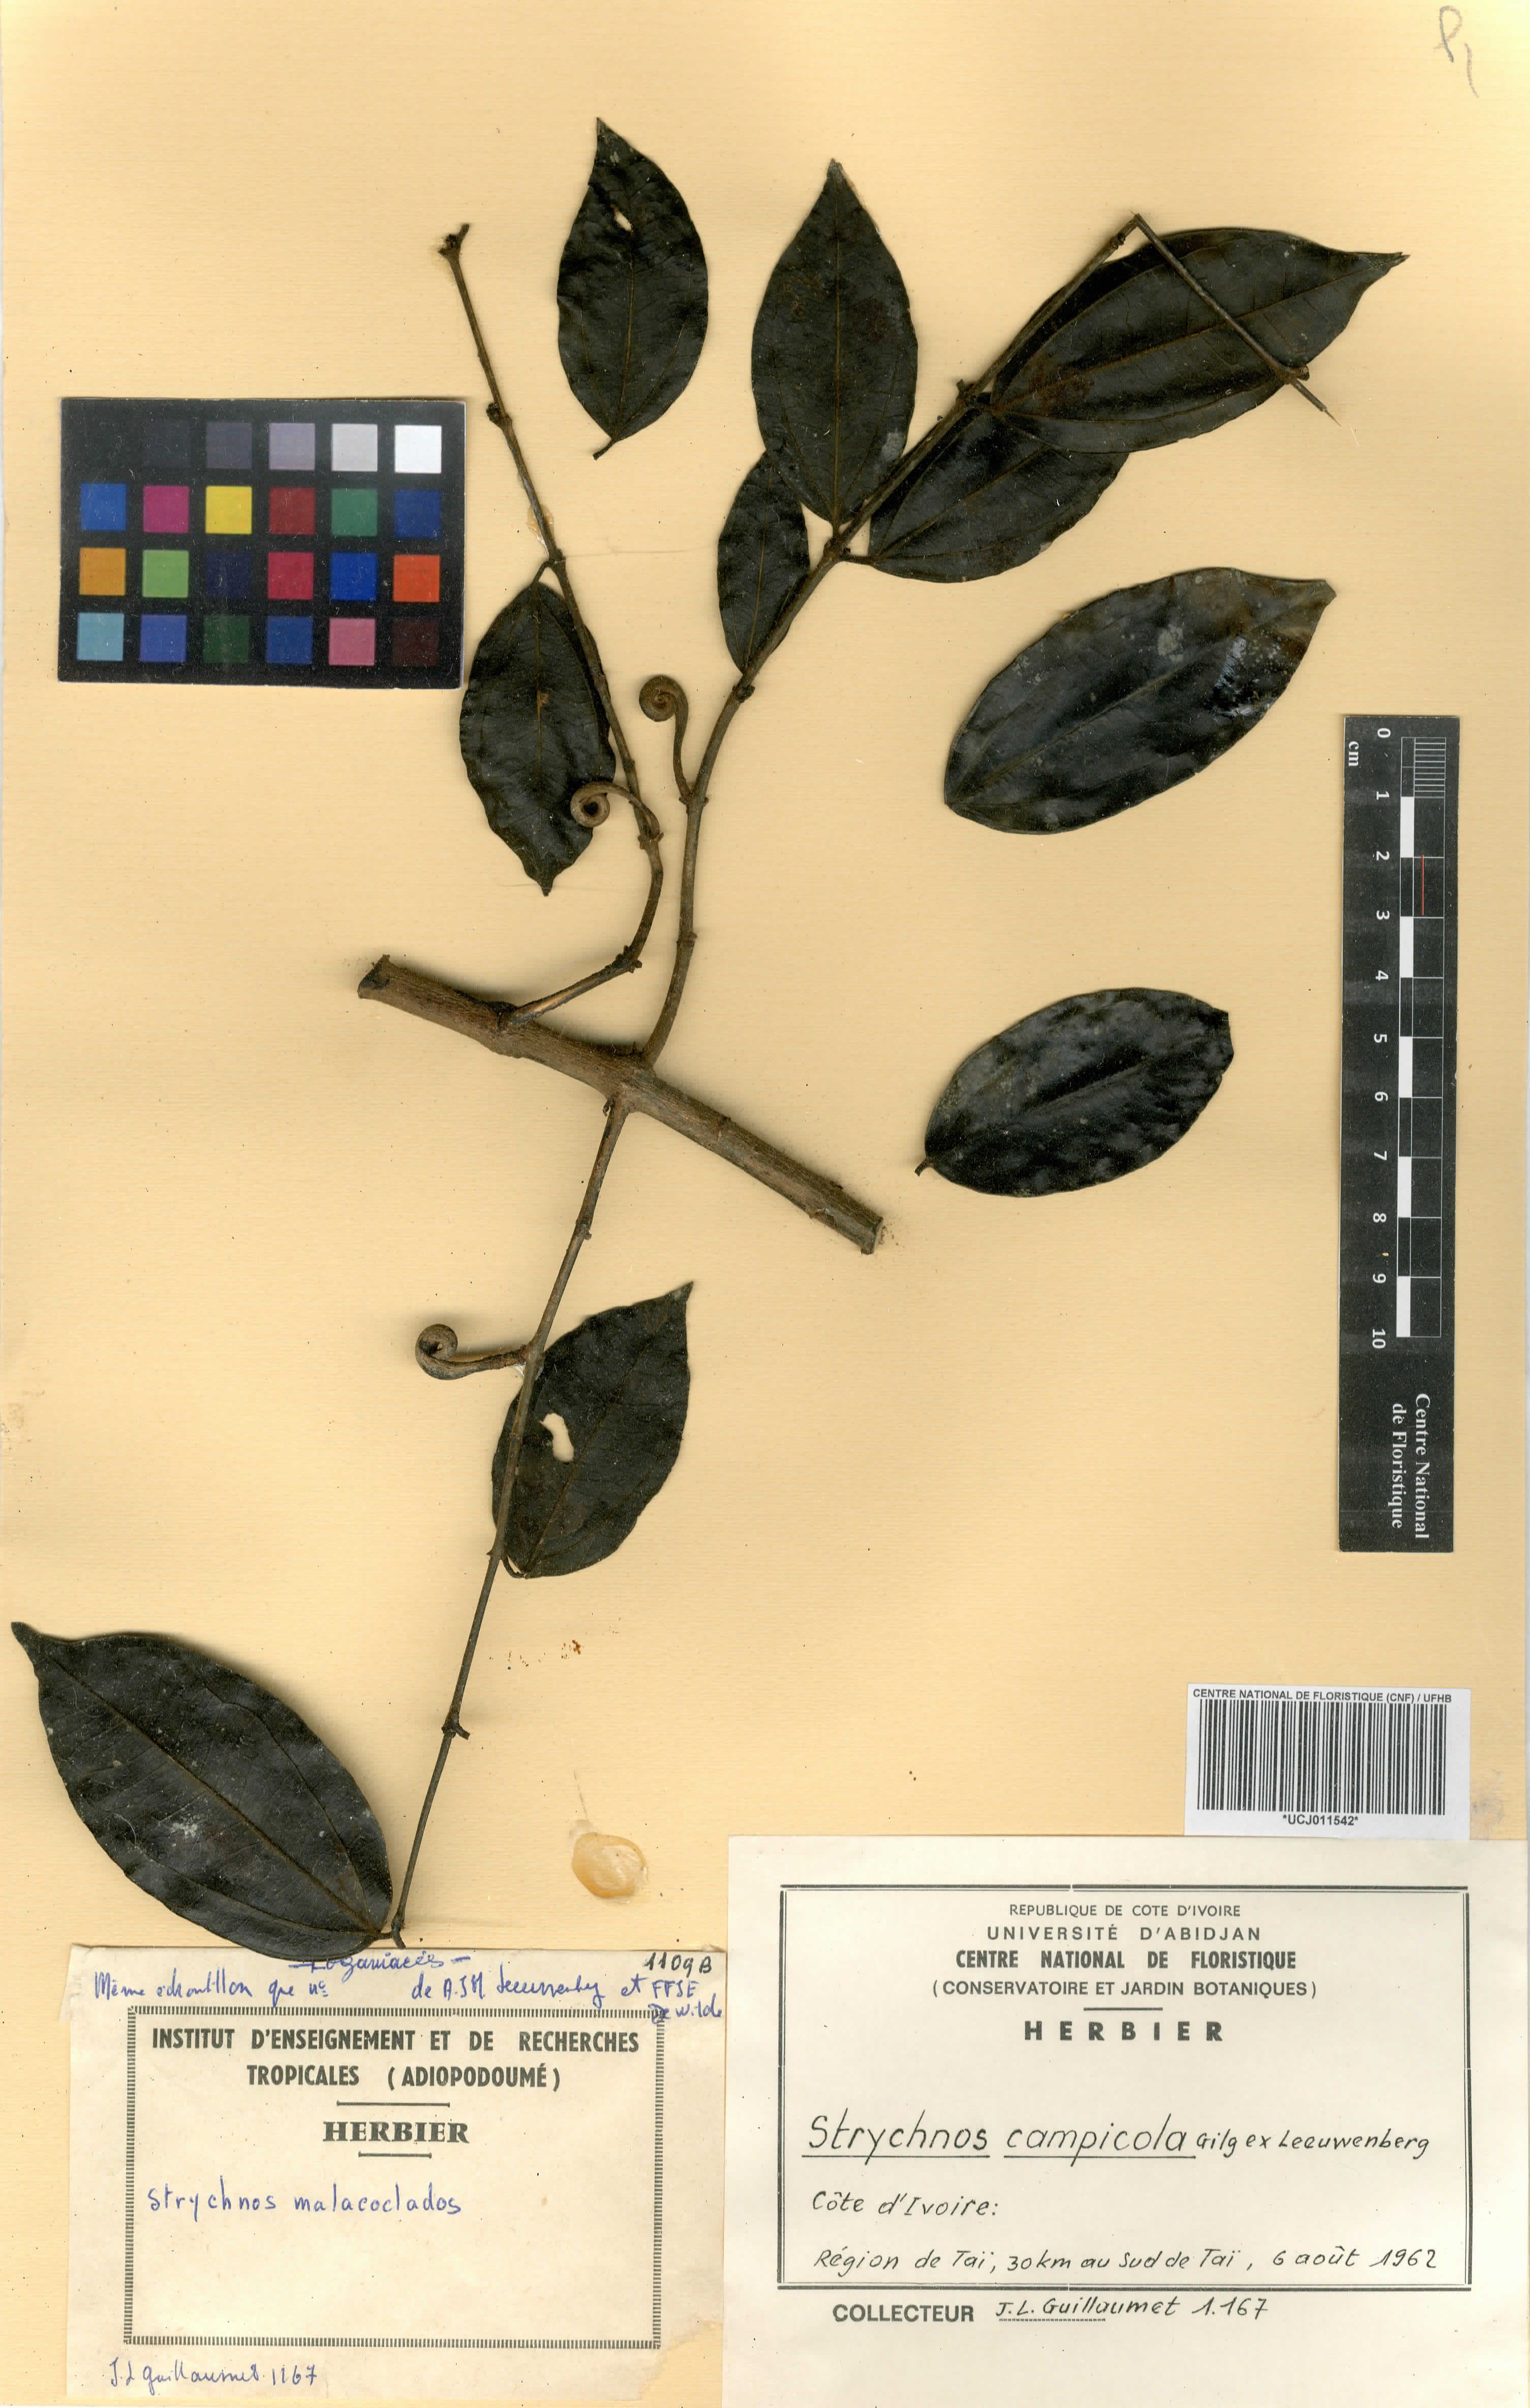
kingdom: Plantae
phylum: Tracheophyta
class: Magnoliopsida
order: Gentianales
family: Loganiaceae
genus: Strychnos
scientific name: Strychnos campicola
